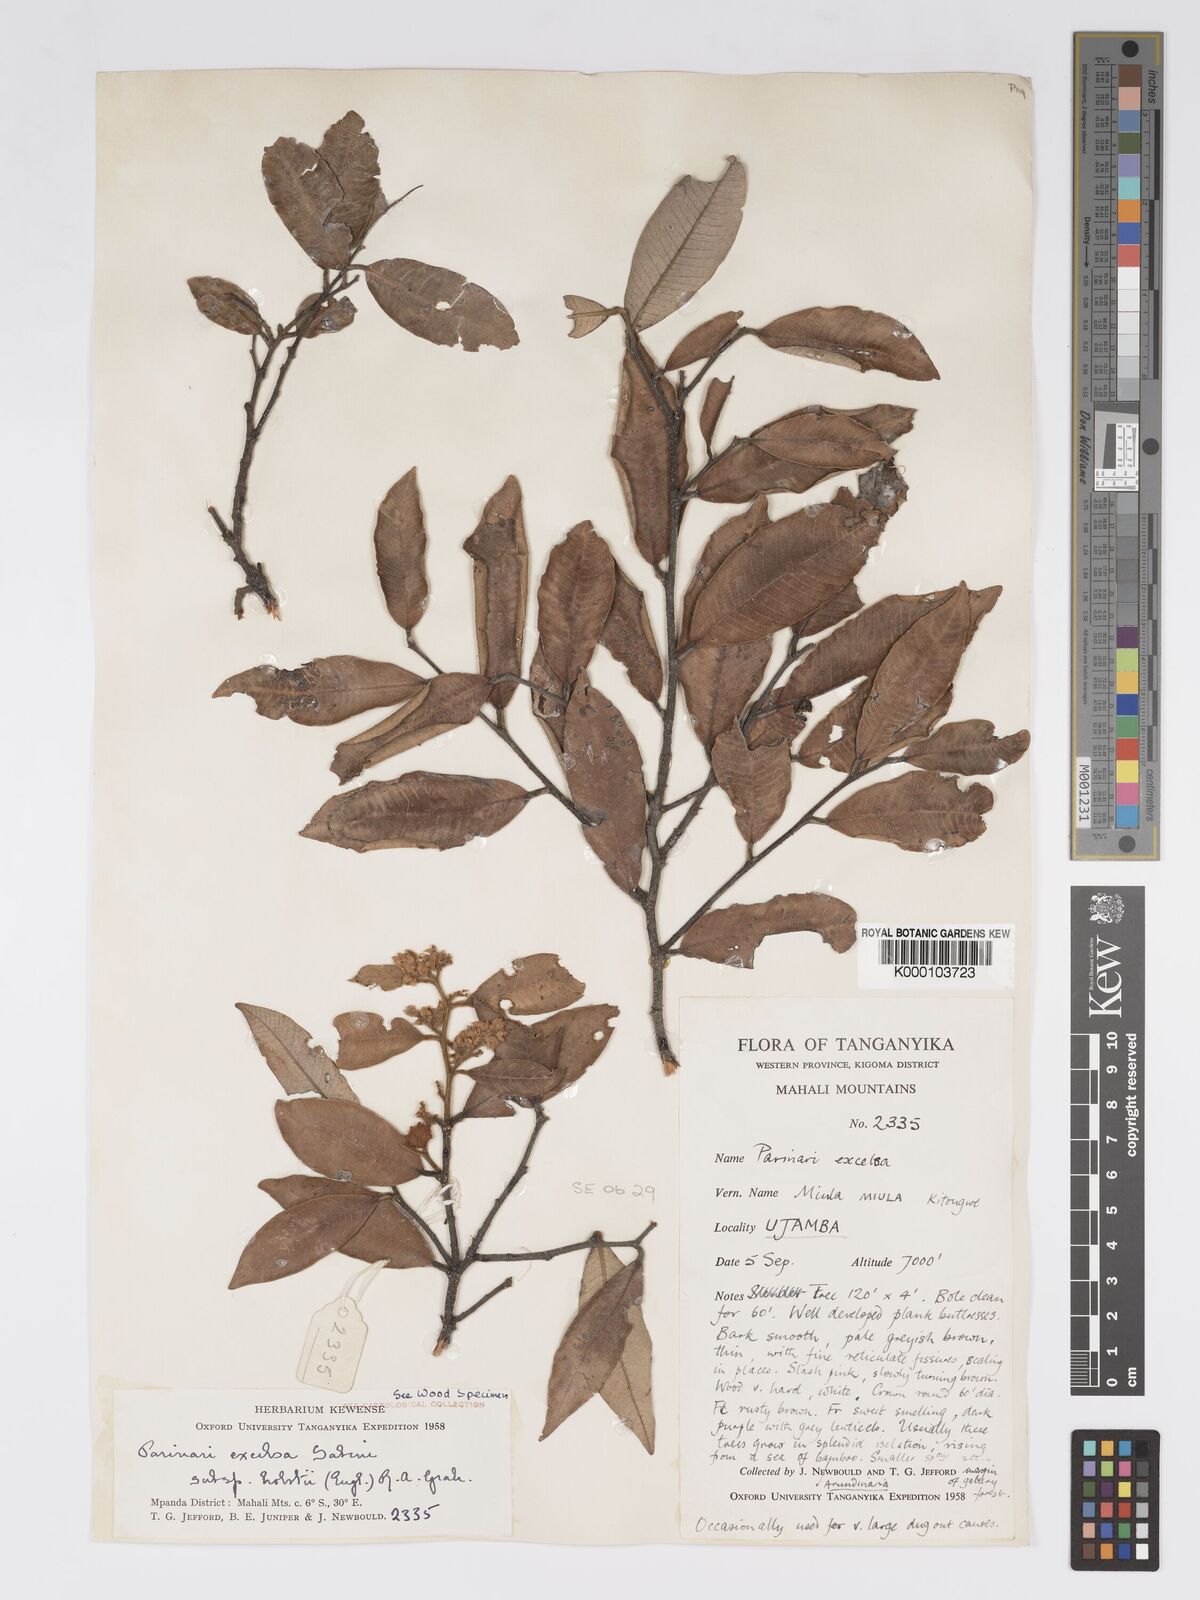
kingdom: Plantae
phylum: Tracheophyta
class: Magnoliopsida
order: Malpighiales
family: Chrysobalanaceae
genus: Parinari
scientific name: Parinari excelsa
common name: Guinea-plum
